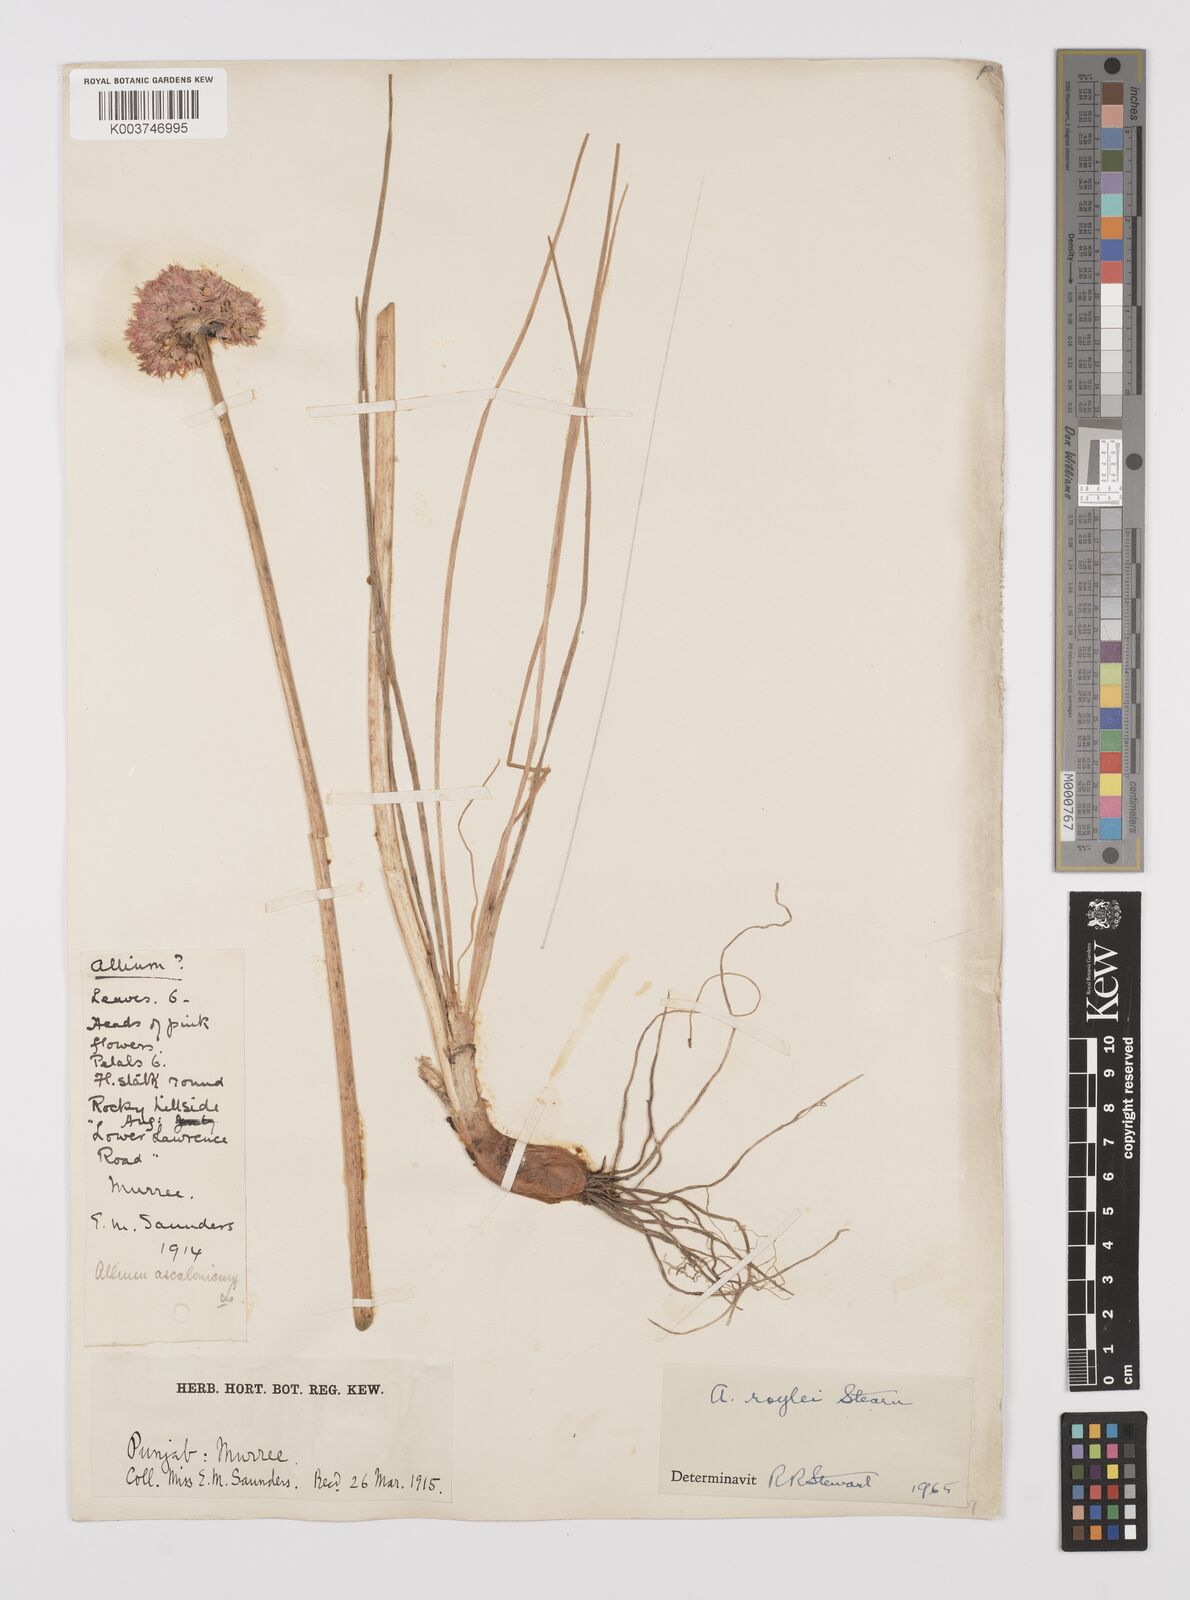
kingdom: Plantae
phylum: Tracheophyta
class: Liliopsida
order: Asparagales
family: Amaryllidaceae
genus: Allium
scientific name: Allium roylei
